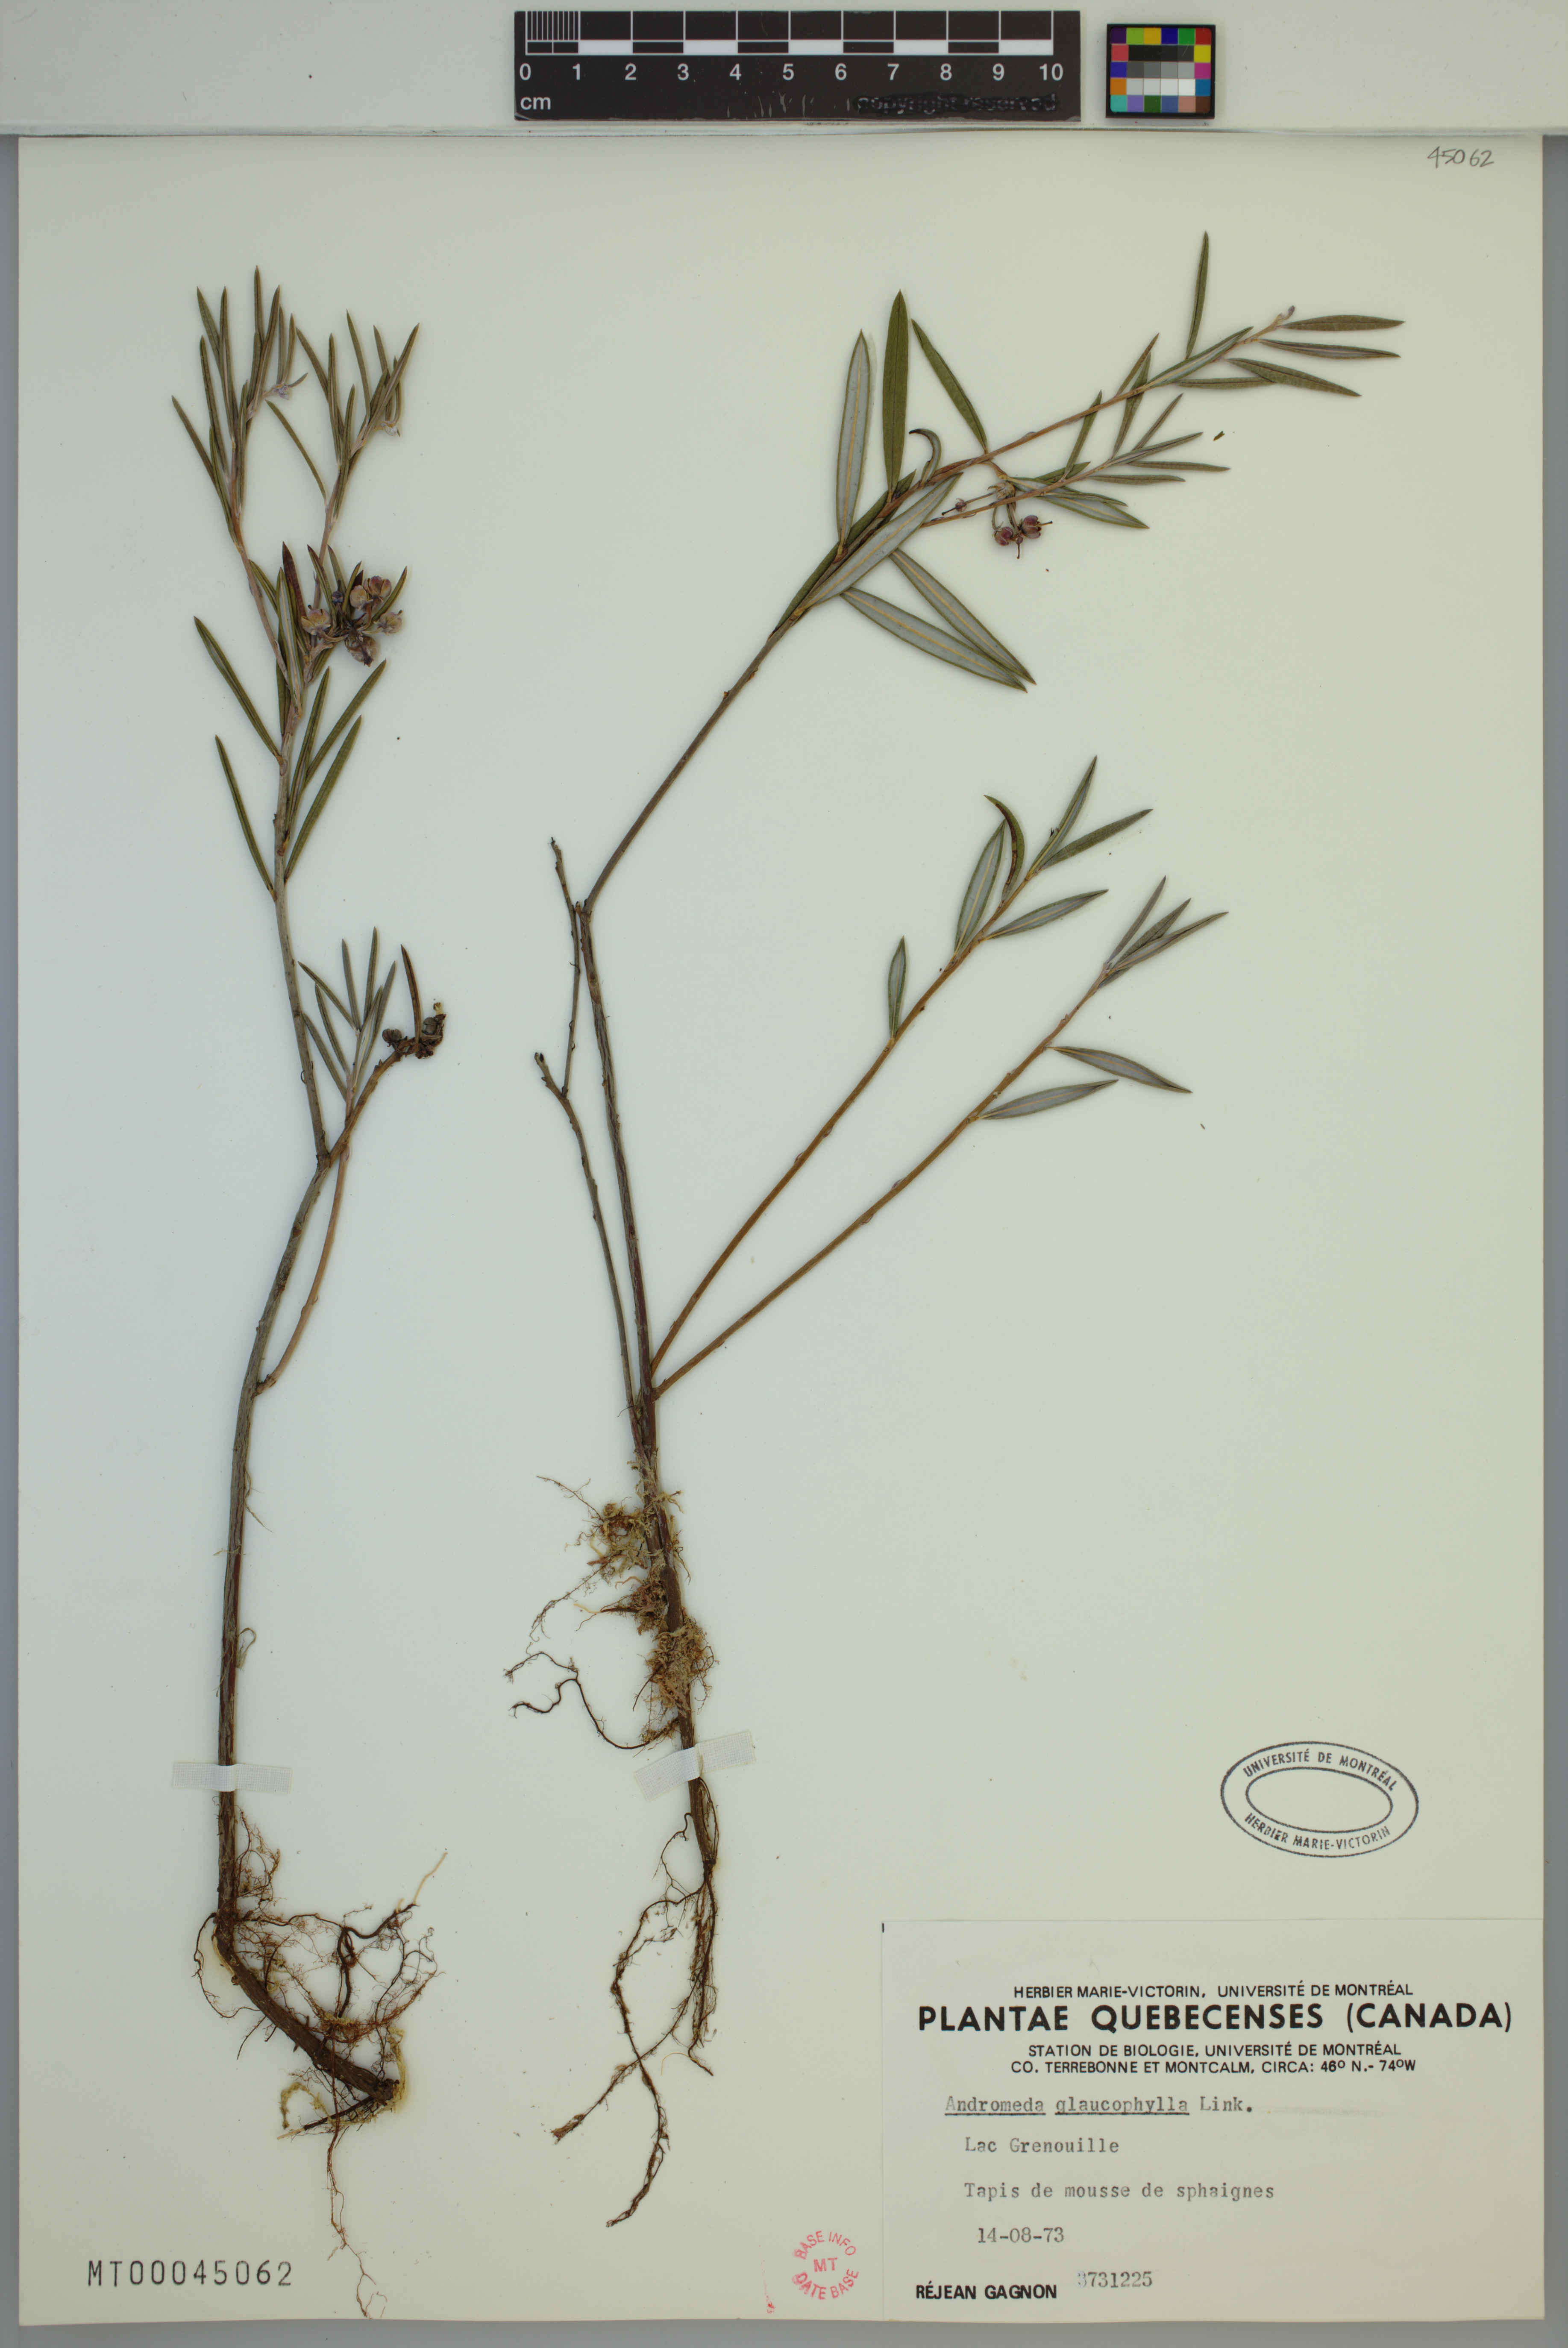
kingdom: Plantae
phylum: Tracheophyta
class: Magnoliopsida
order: Ericales
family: Ericaceae
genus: Andromeda
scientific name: Andromeda polifolia
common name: Bog-rosemary
